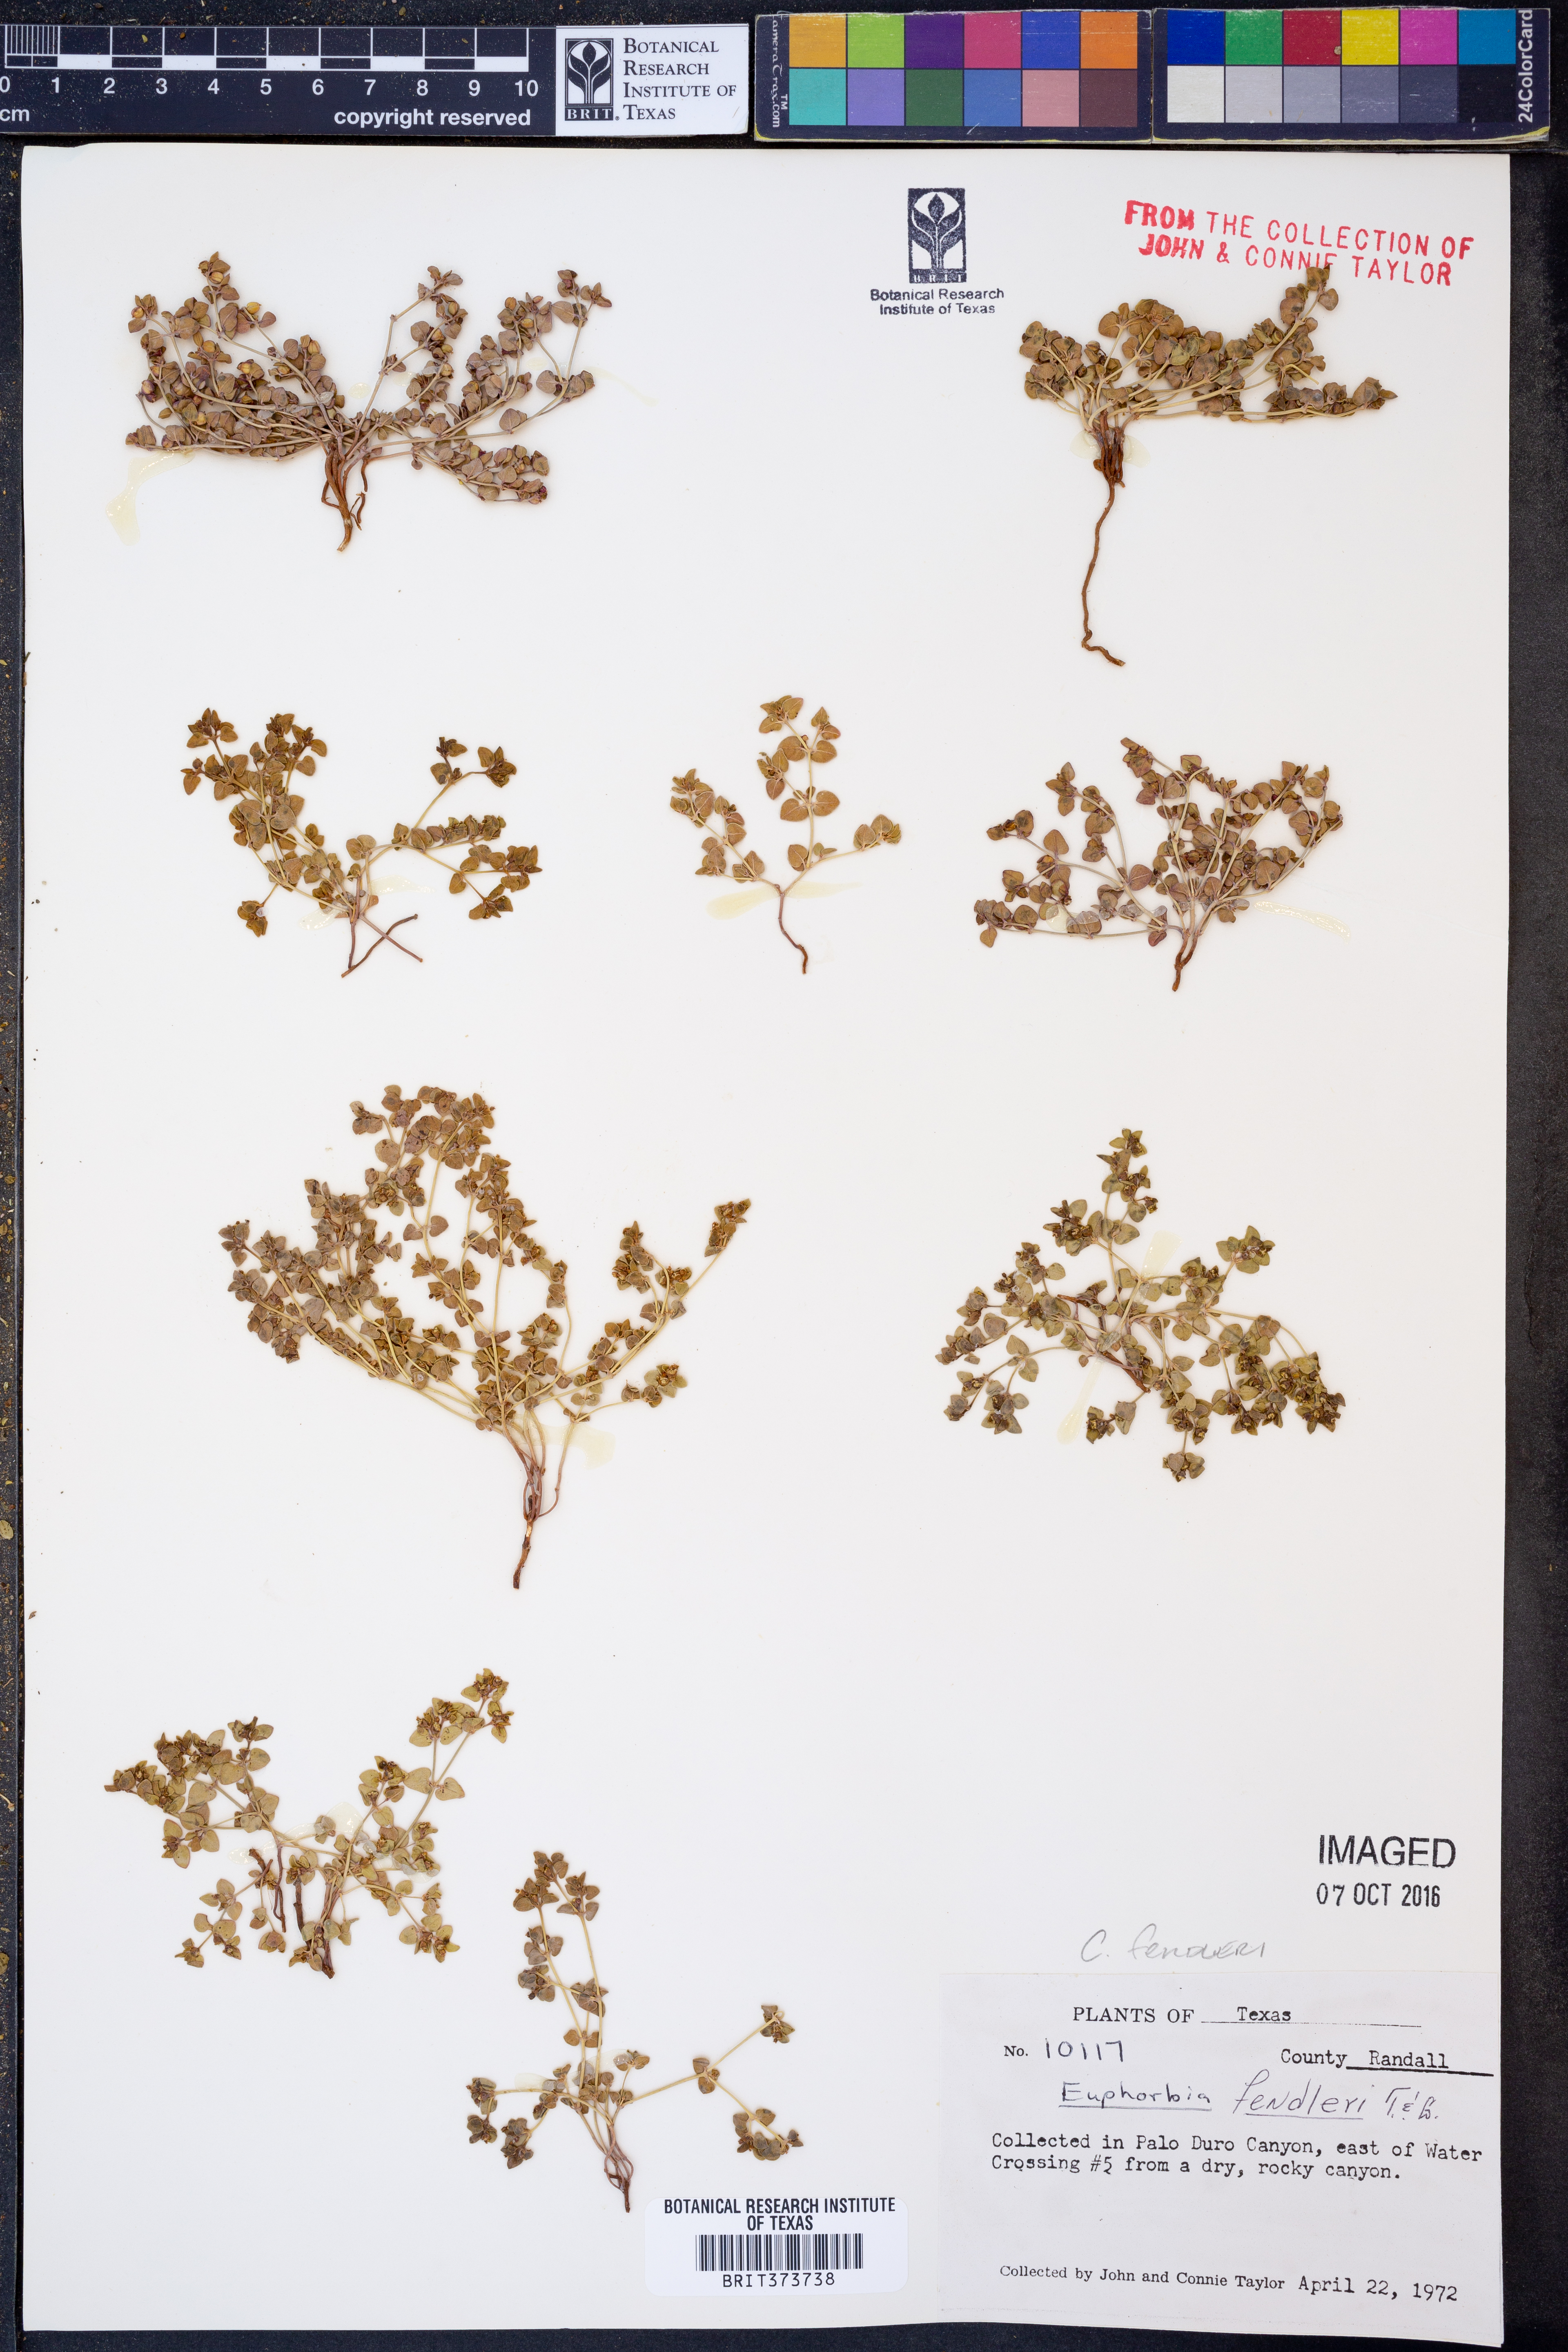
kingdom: Plantae
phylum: Tracheophyta
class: Magnoliopsida
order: Malpighiales
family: Euphorbiaceae
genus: Euphorbia
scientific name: Euphorbia fendleri
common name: Fendler's euphorbia
